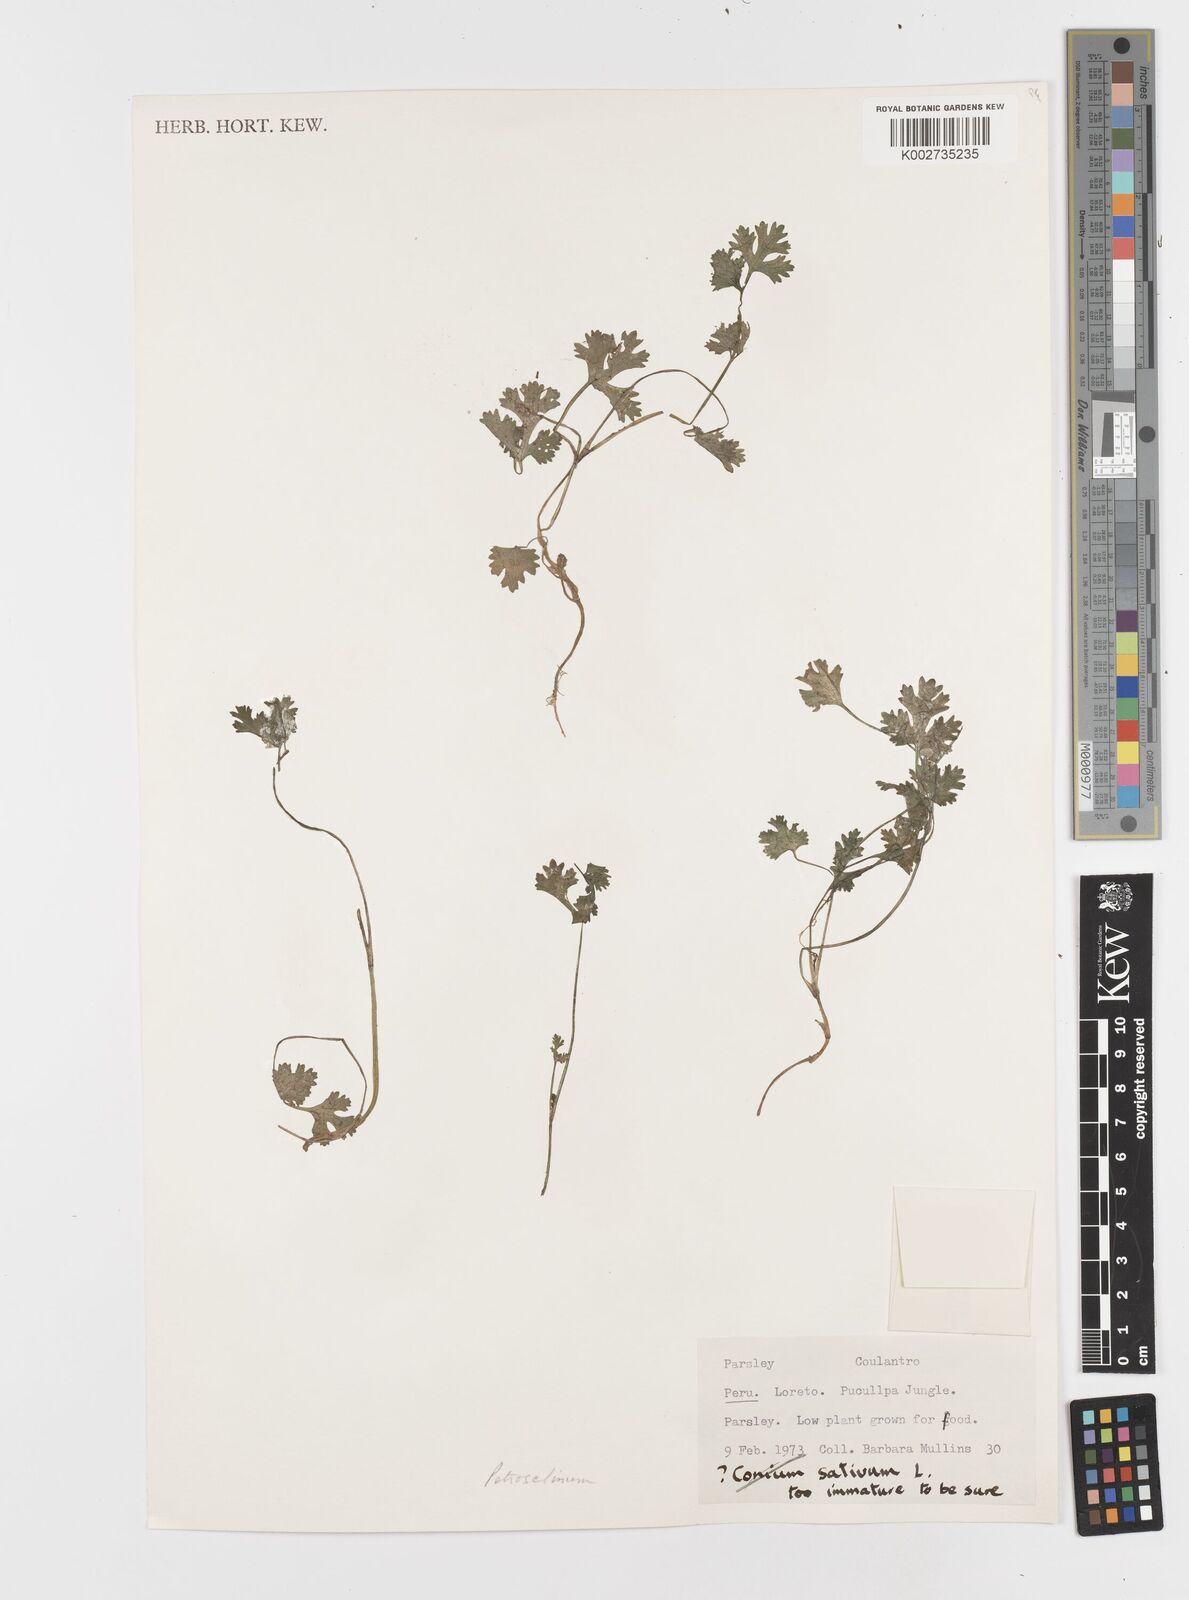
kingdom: Plantae
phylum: Tracheophyta
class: Magnoliopsida
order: Apiales
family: Apiaceae
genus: Petroselinum
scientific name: Petroselinum
